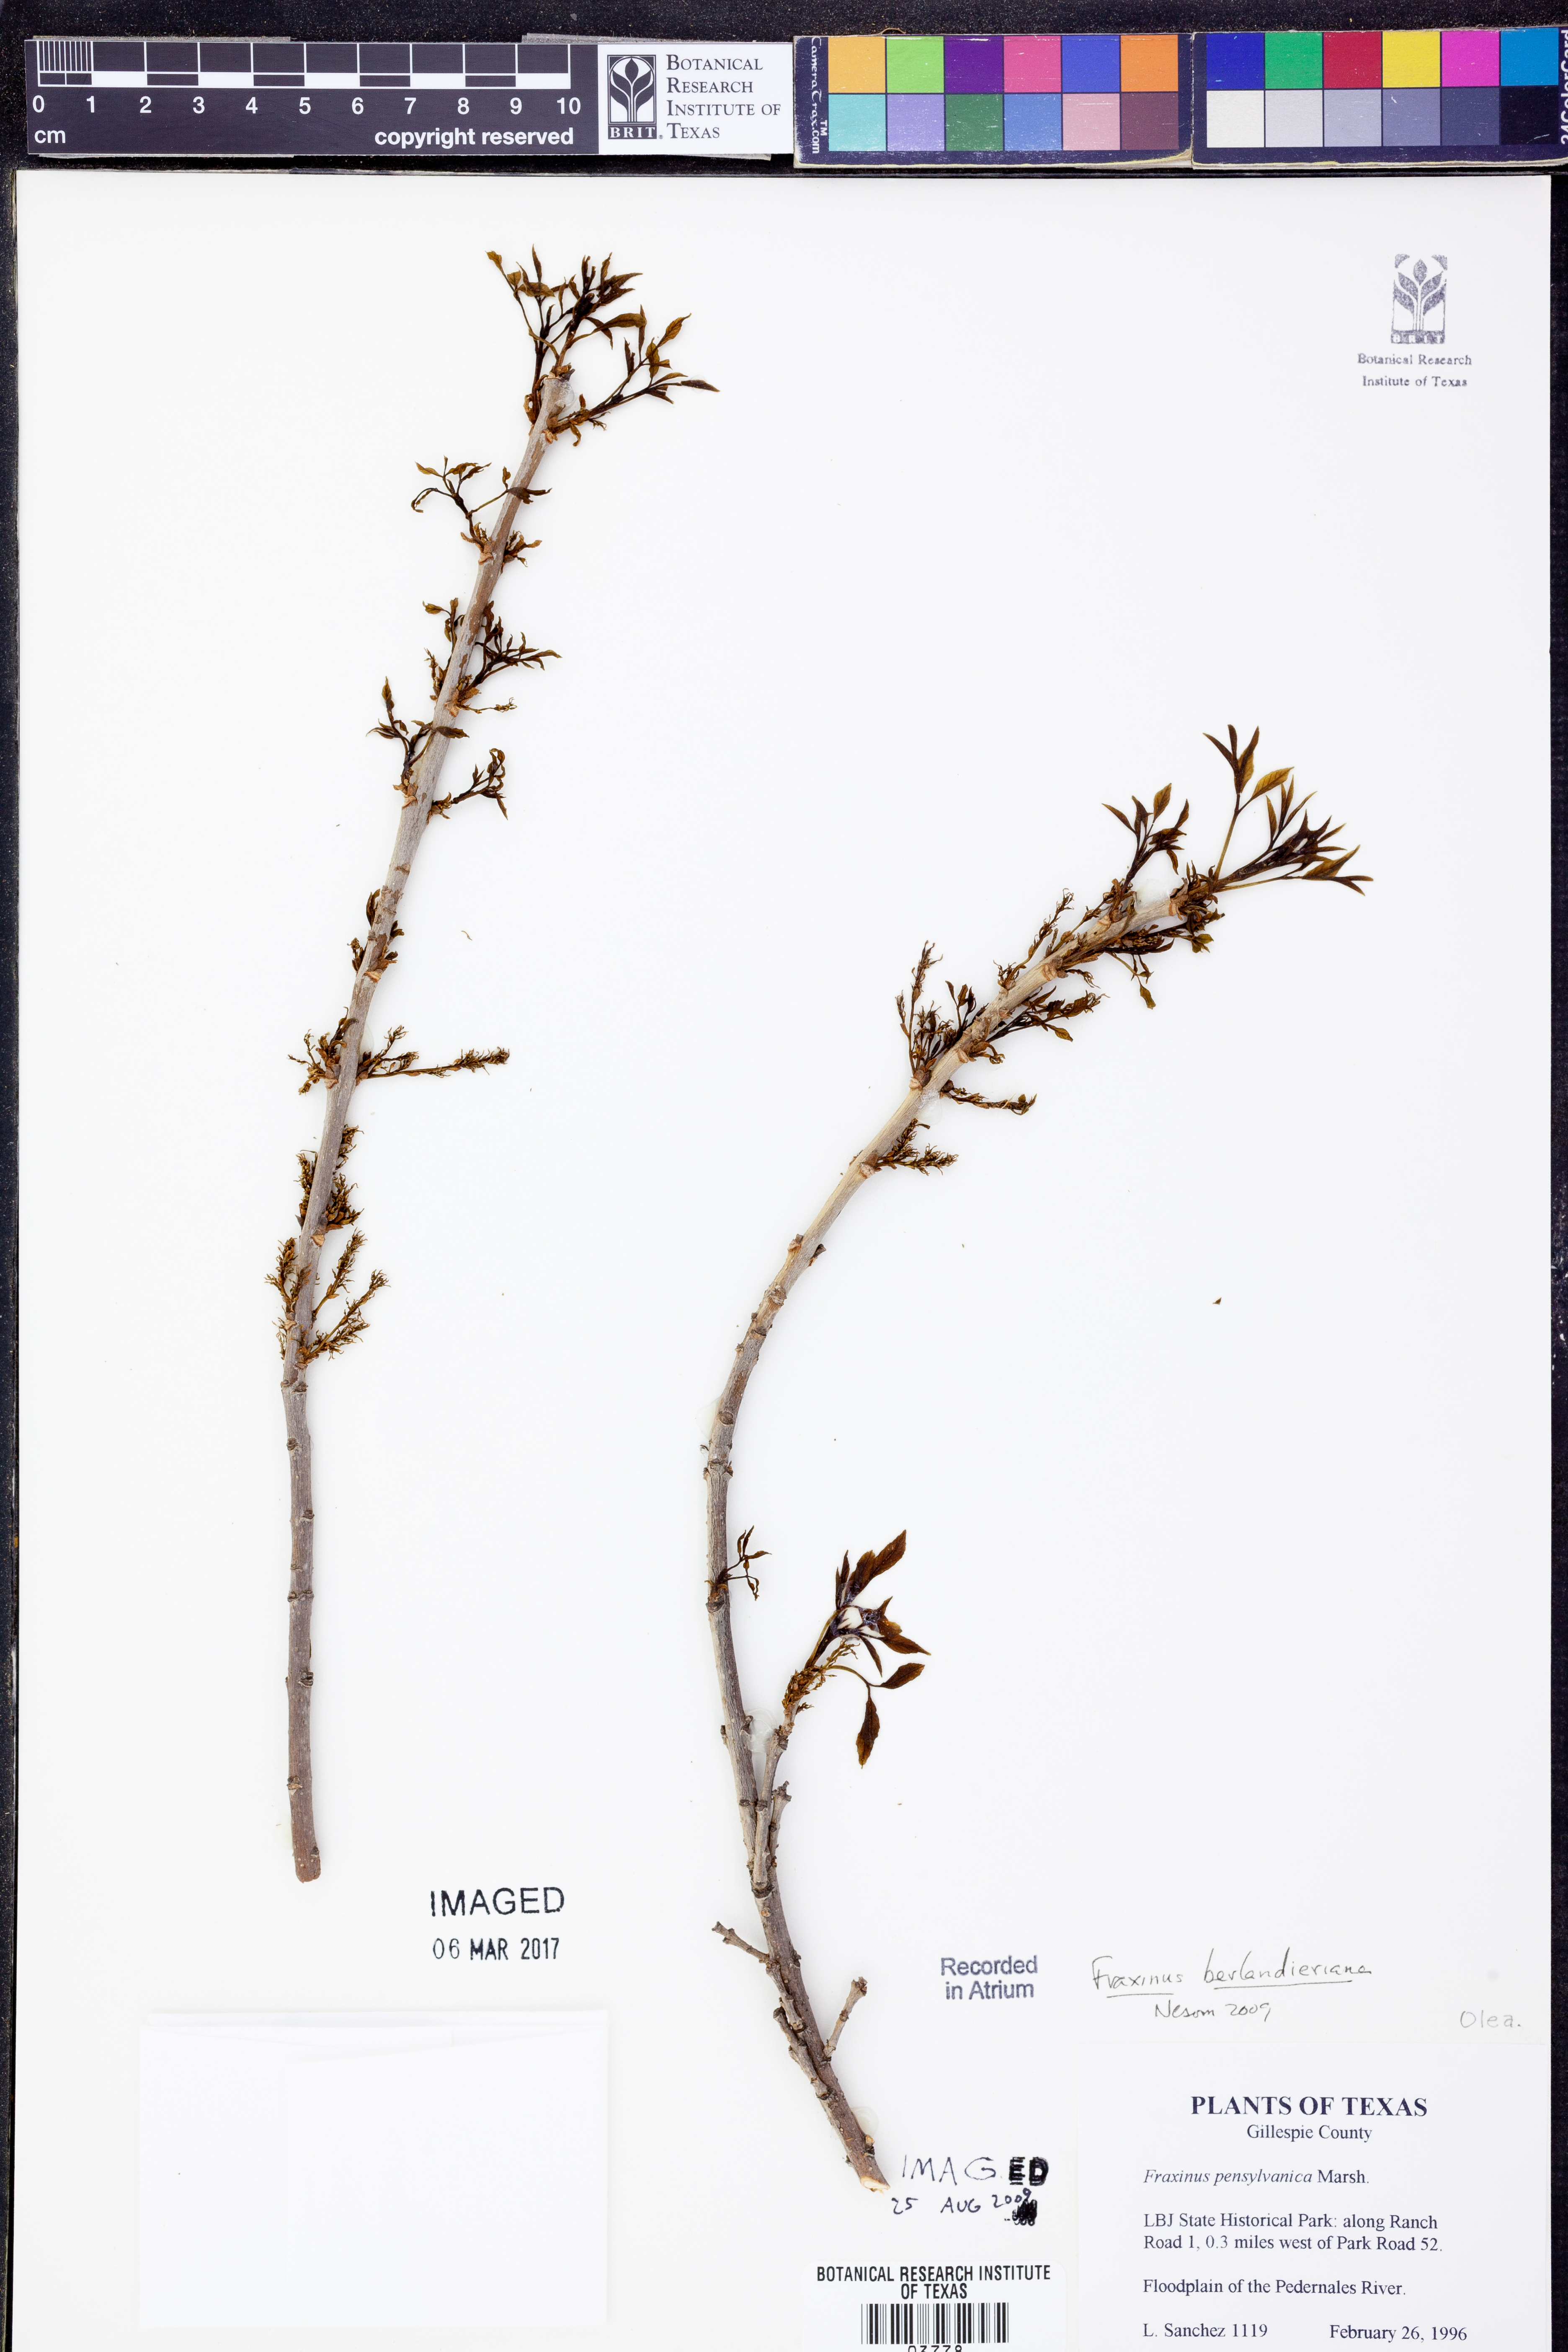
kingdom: Plantae
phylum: Tracheophyta
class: Magnoliopsida
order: Lamiales
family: Oleaceae
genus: Fraxinus
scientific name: Fraxinus berlandieriana
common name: Berlandier ash
